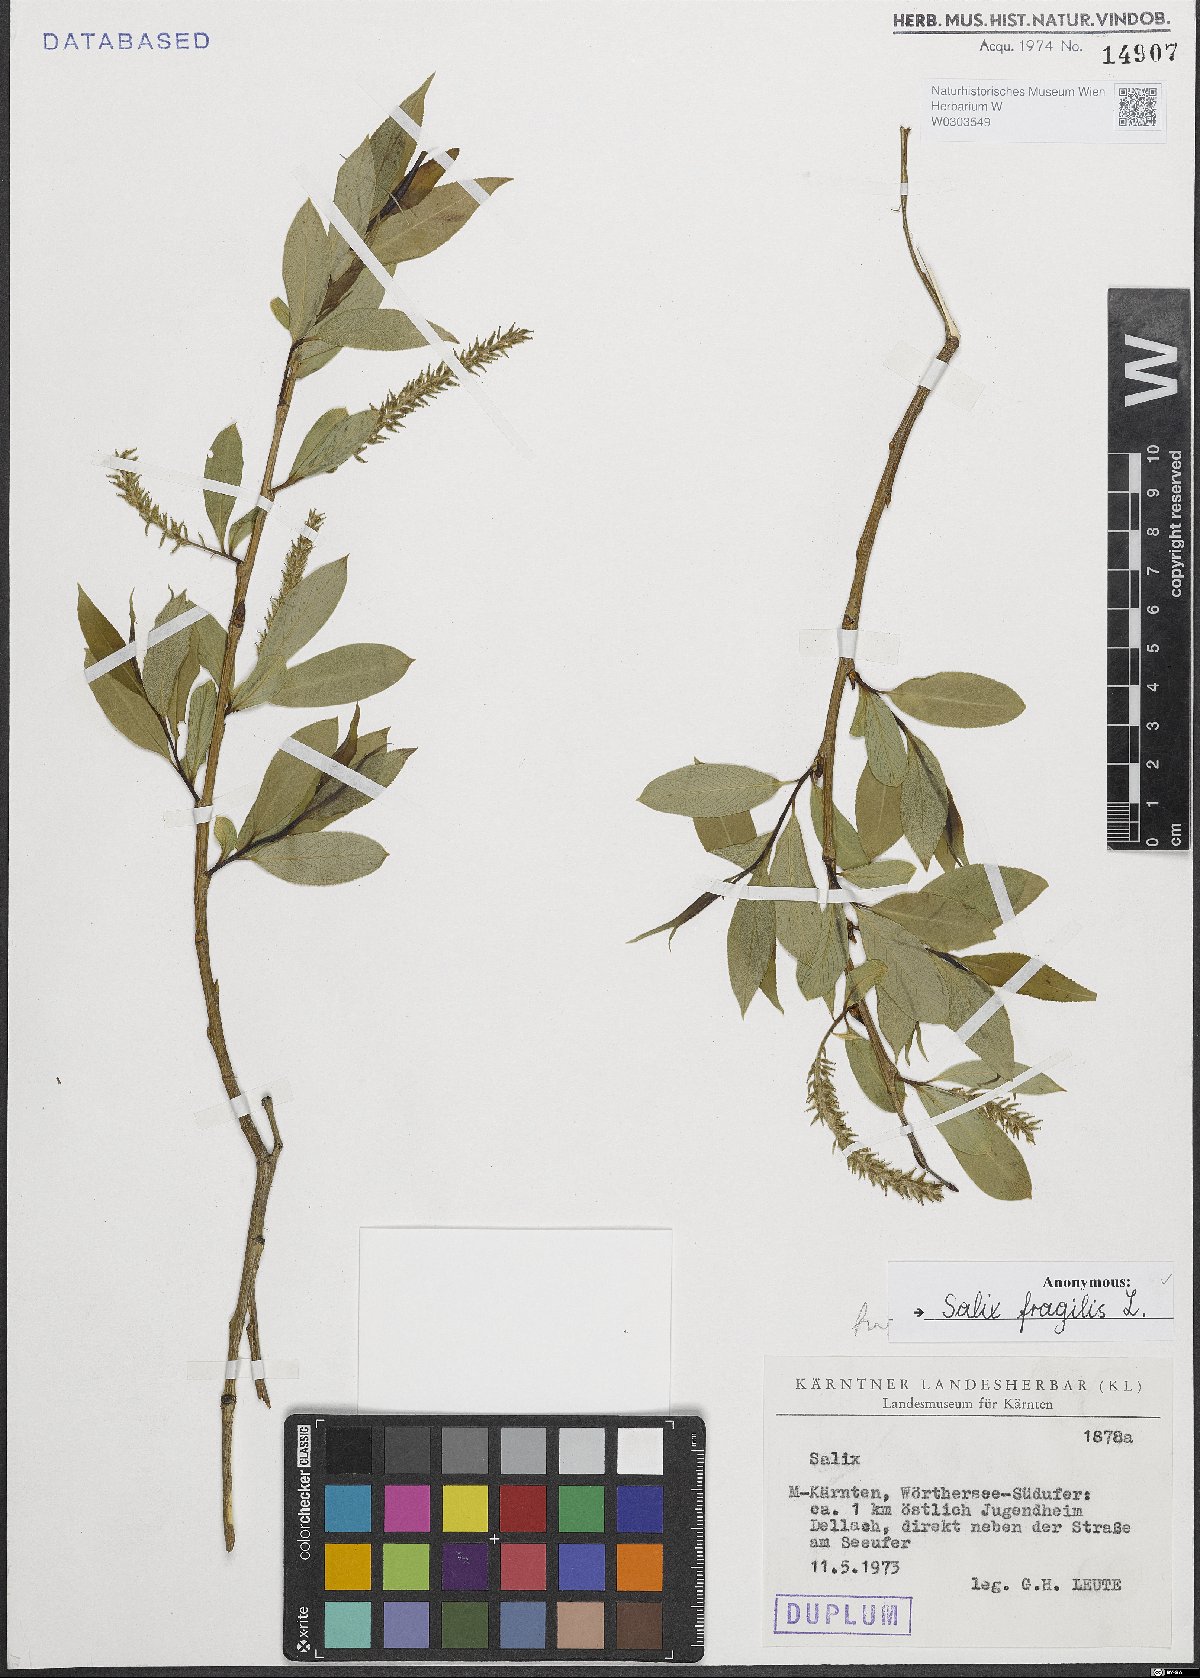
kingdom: Plantae
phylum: Tracheophyta
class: Magnoliopsida
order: Malpighiales
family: Salicaceae
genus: Salix
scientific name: Salix fragilis
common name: Crack willow
